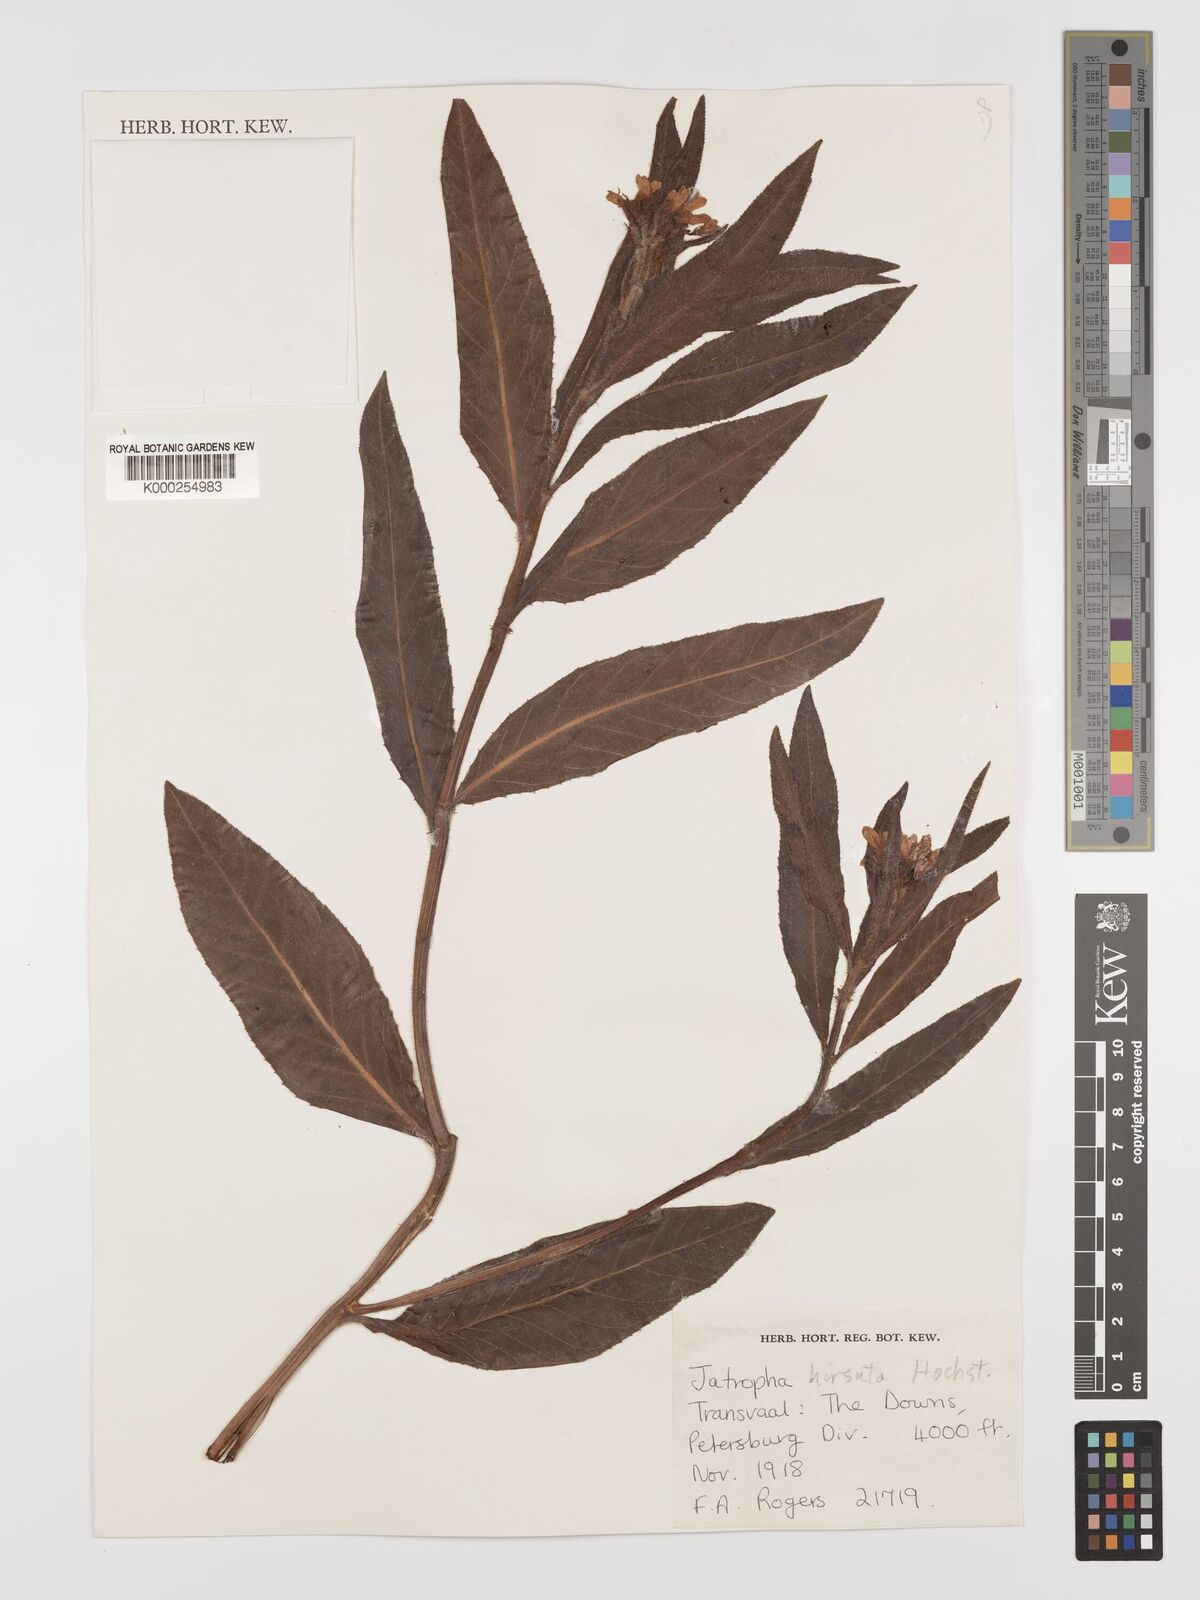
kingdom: Plantae
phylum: Tracheophyta
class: Magnoliopsida
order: Malpighiales
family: Euphorbiaceae
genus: Jatropha
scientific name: Jatropha hirsuta
